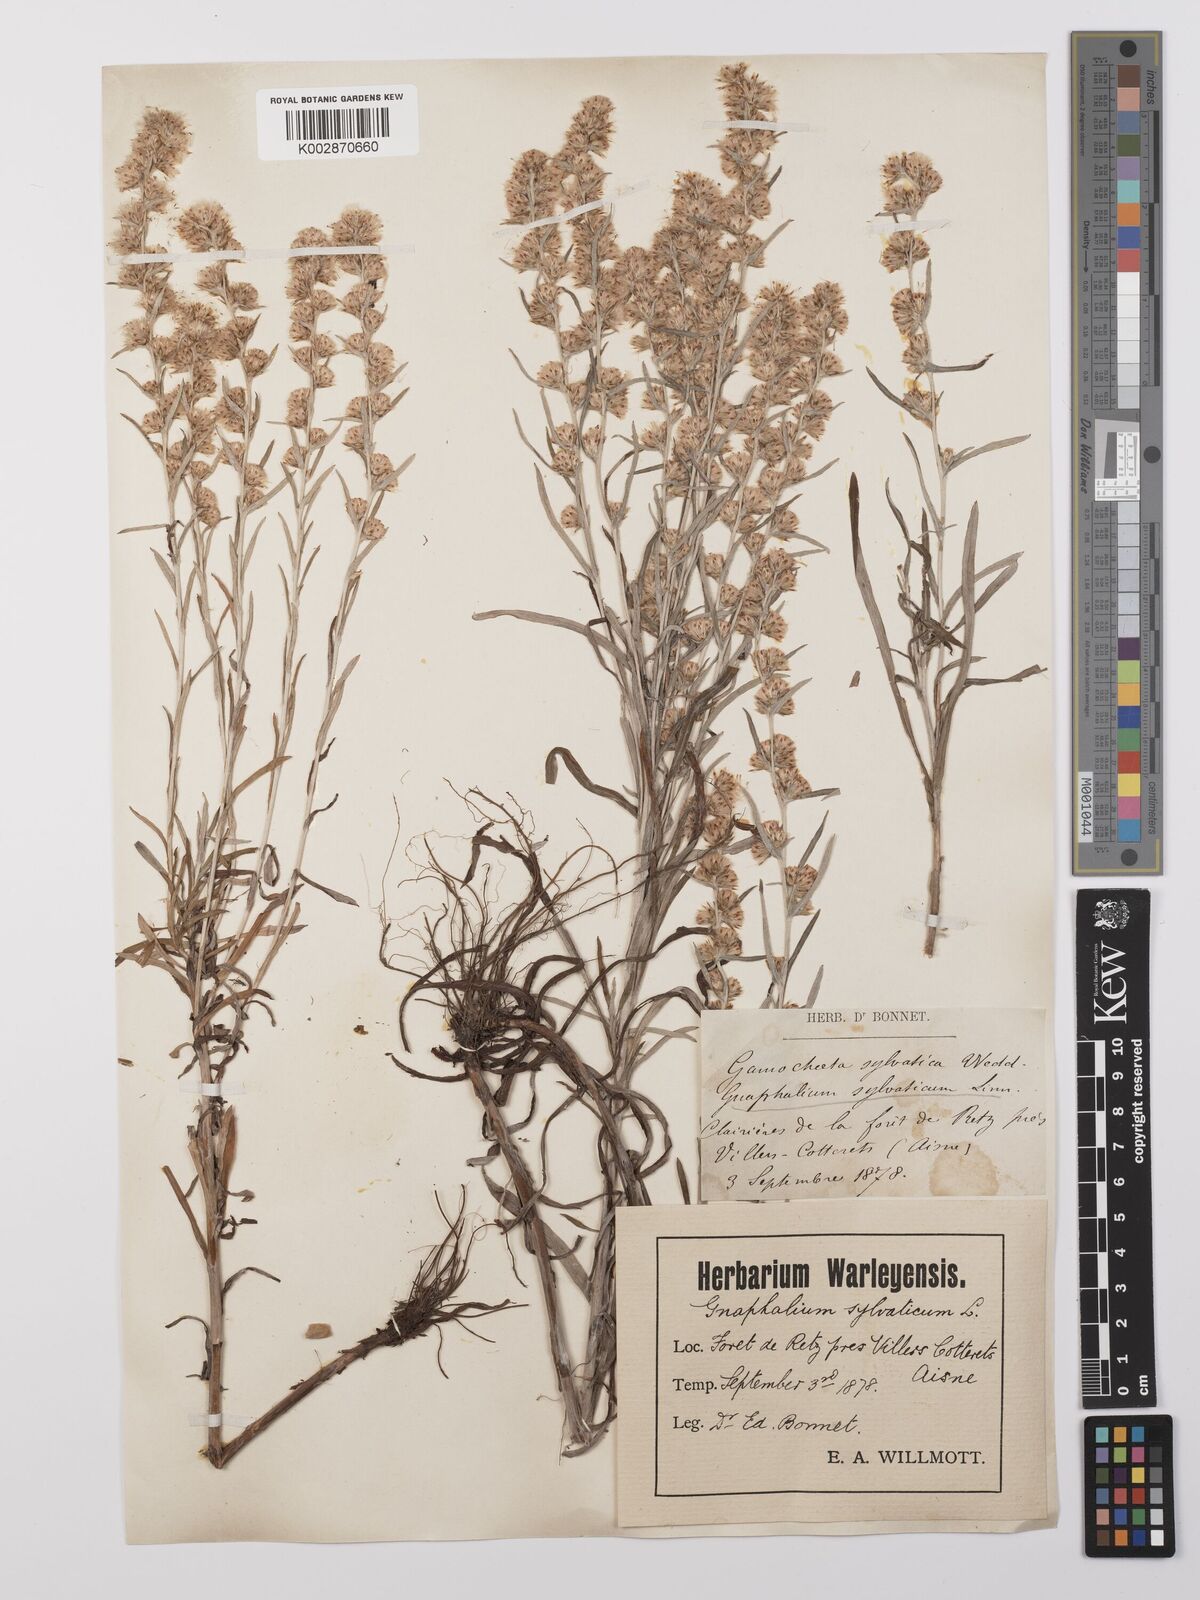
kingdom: Plantae
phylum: Tracheophyta
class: Magnoliopsida
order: Asterales
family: Asteraceae
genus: Omalotheca
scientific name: Omalotheca sylvatica
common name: Heath cudweed
